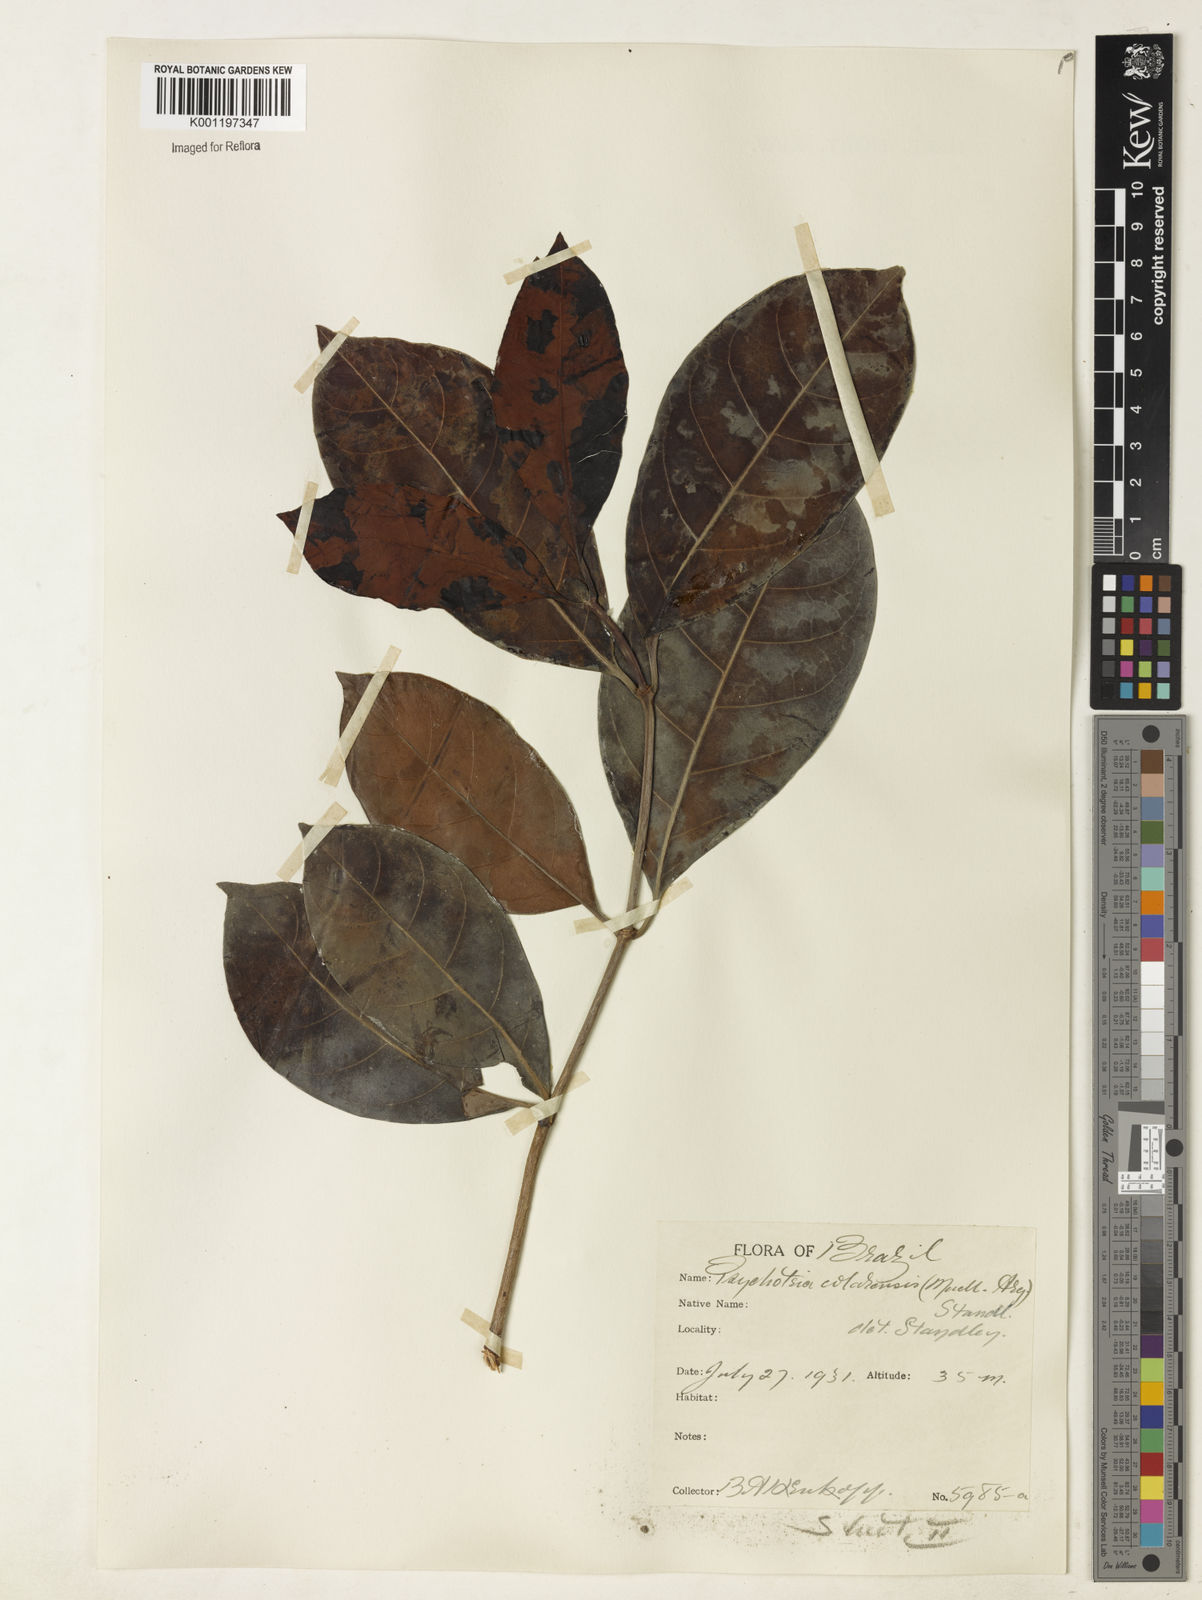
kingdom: Plantae
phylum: Tracheophyta
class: Magnoliopsida
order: Gentianales
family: Rubiaceae
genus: Psychotria
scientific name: Psychotria
